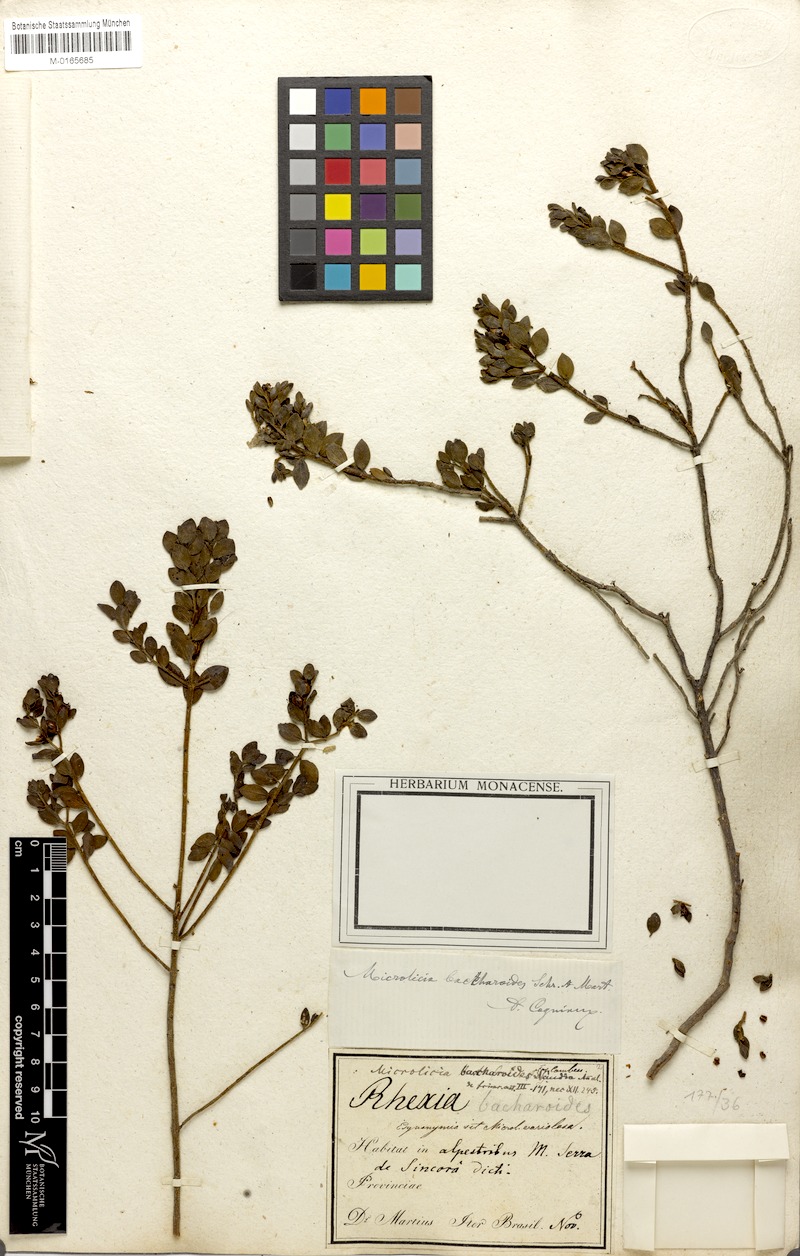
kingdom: Plantae
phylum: Tracheophyta
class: Magnoliopsida
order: Myrtales
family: Melastomataceae
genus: Microlicia
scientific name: Microlicia baccharoides
